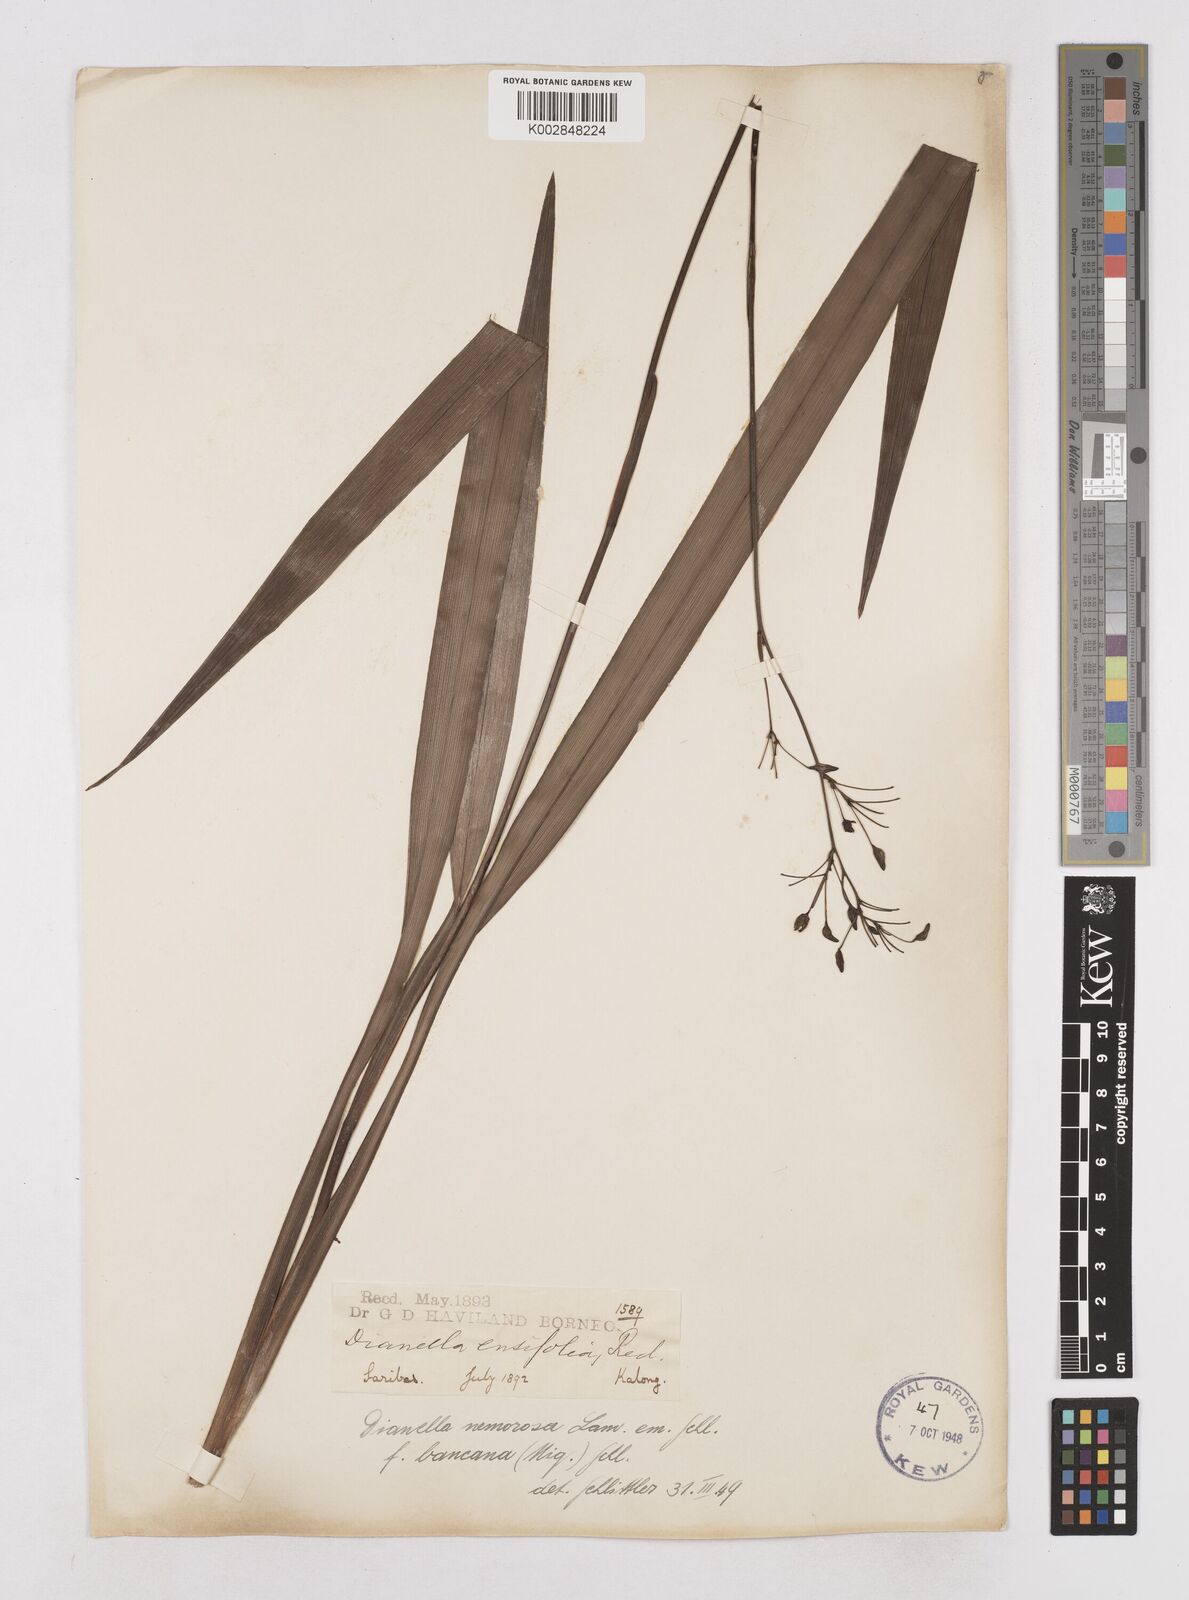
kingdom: Plantae
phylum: Tracheophyta
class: Liliopsida
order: Asparagales
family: Asphodelaceae
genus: Dianella
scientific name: Dianella
